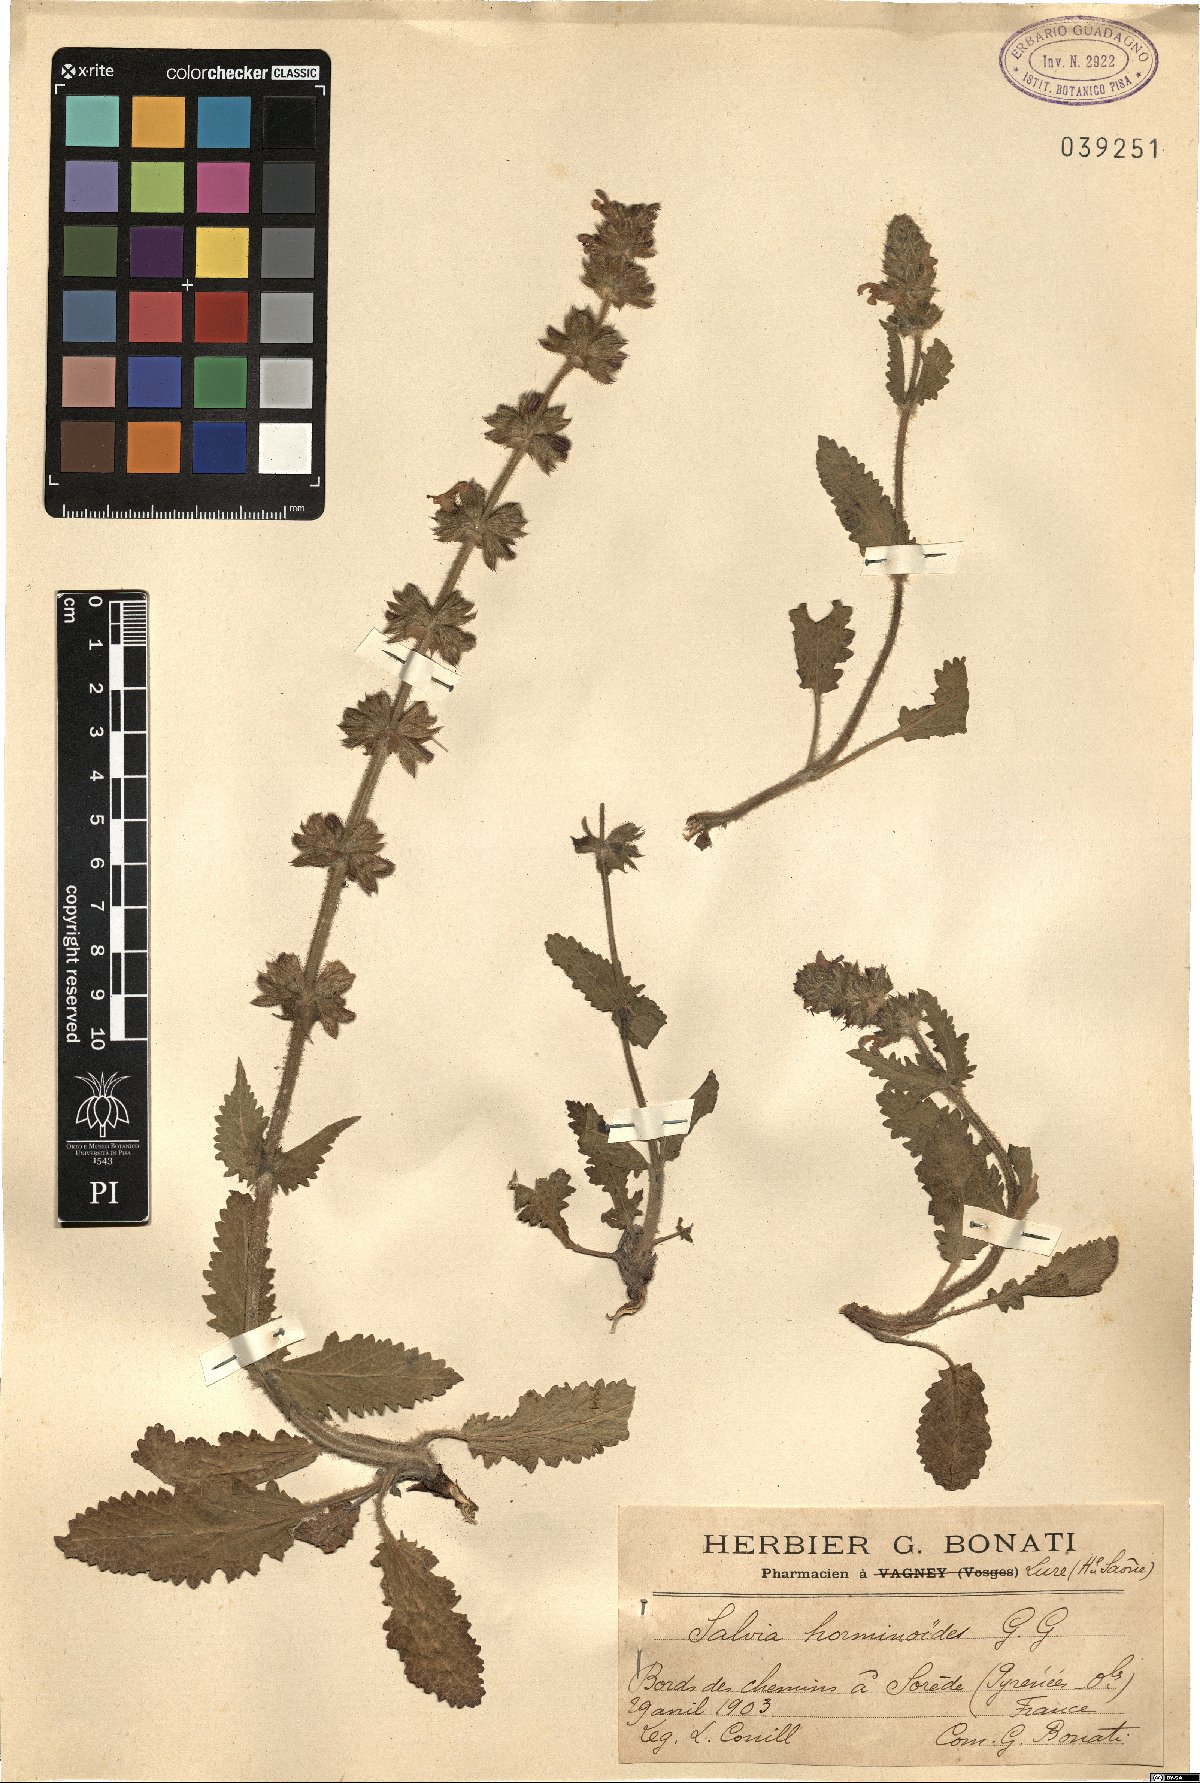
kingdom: Plantae
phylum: Tracheophyta
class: Magnoliopsida
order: Lamiales
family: Lamiaceae
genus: Salvia
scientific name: Salvia verbenaca
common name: Wild clary
